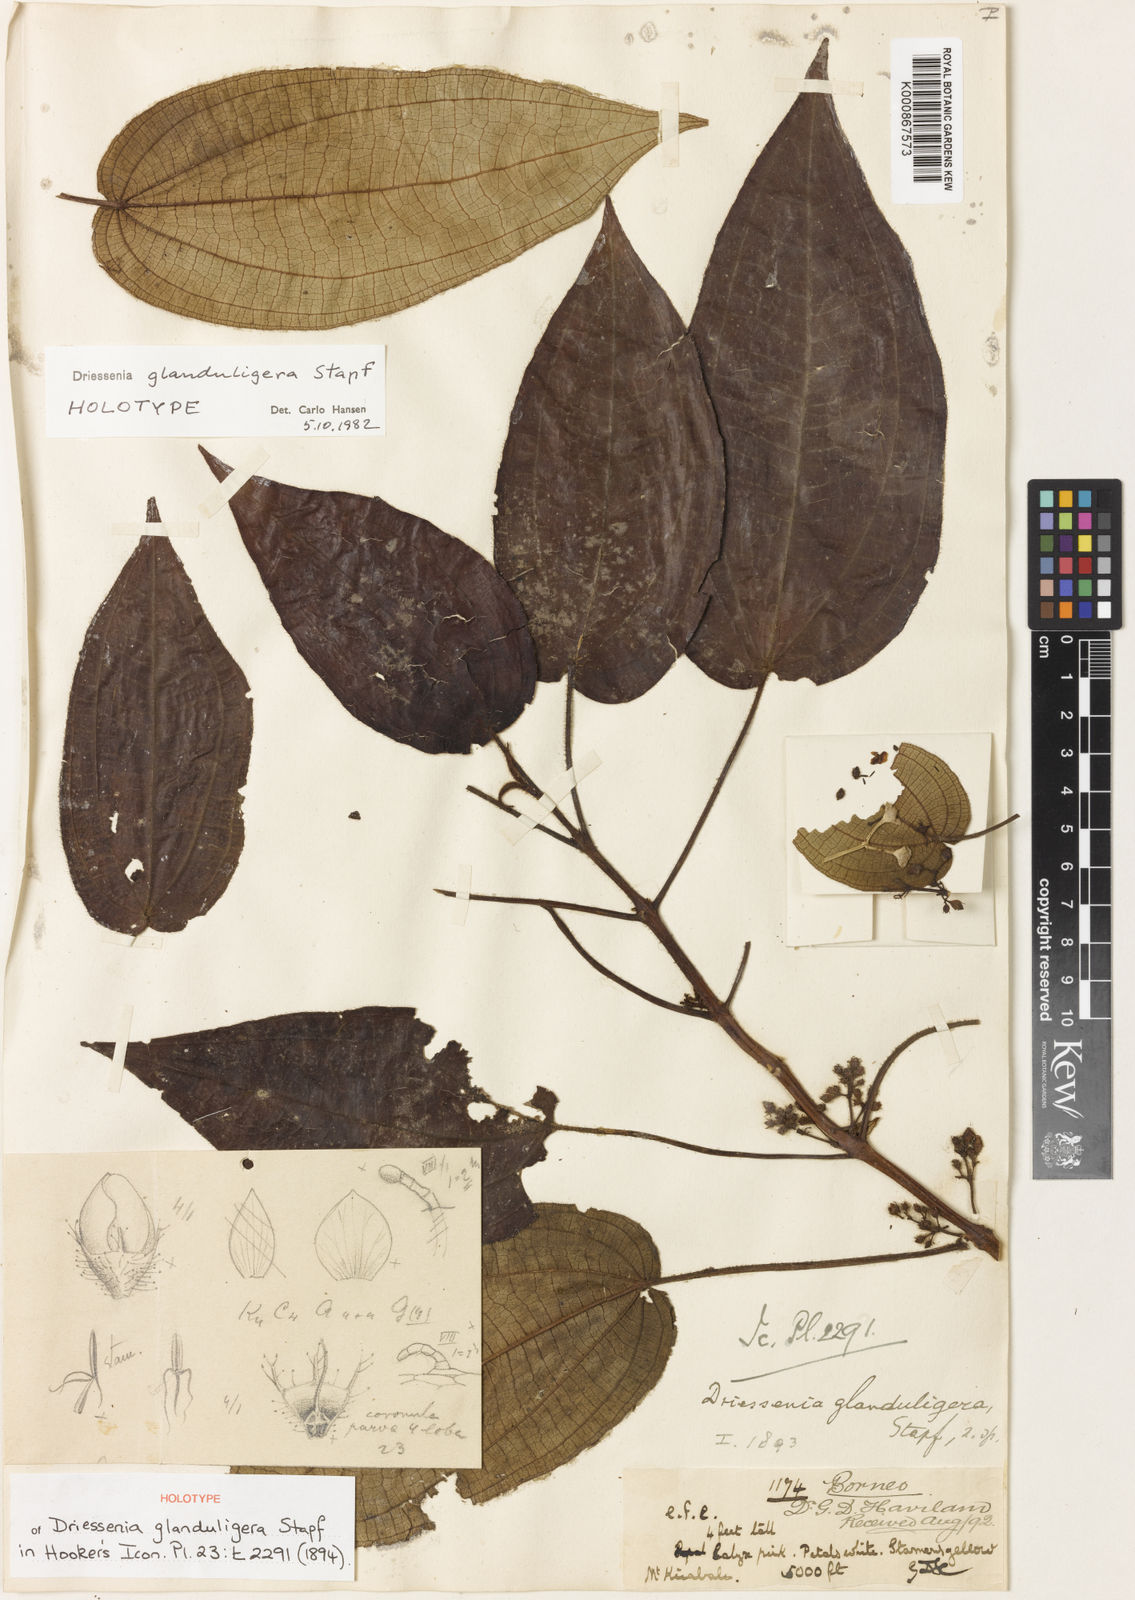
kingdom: Plantae
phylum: Tracheophyta
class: Magnoliopsida
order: Myrtales
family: Melastomataceae
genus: Driessenia
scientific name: Driessenia glanduligera
